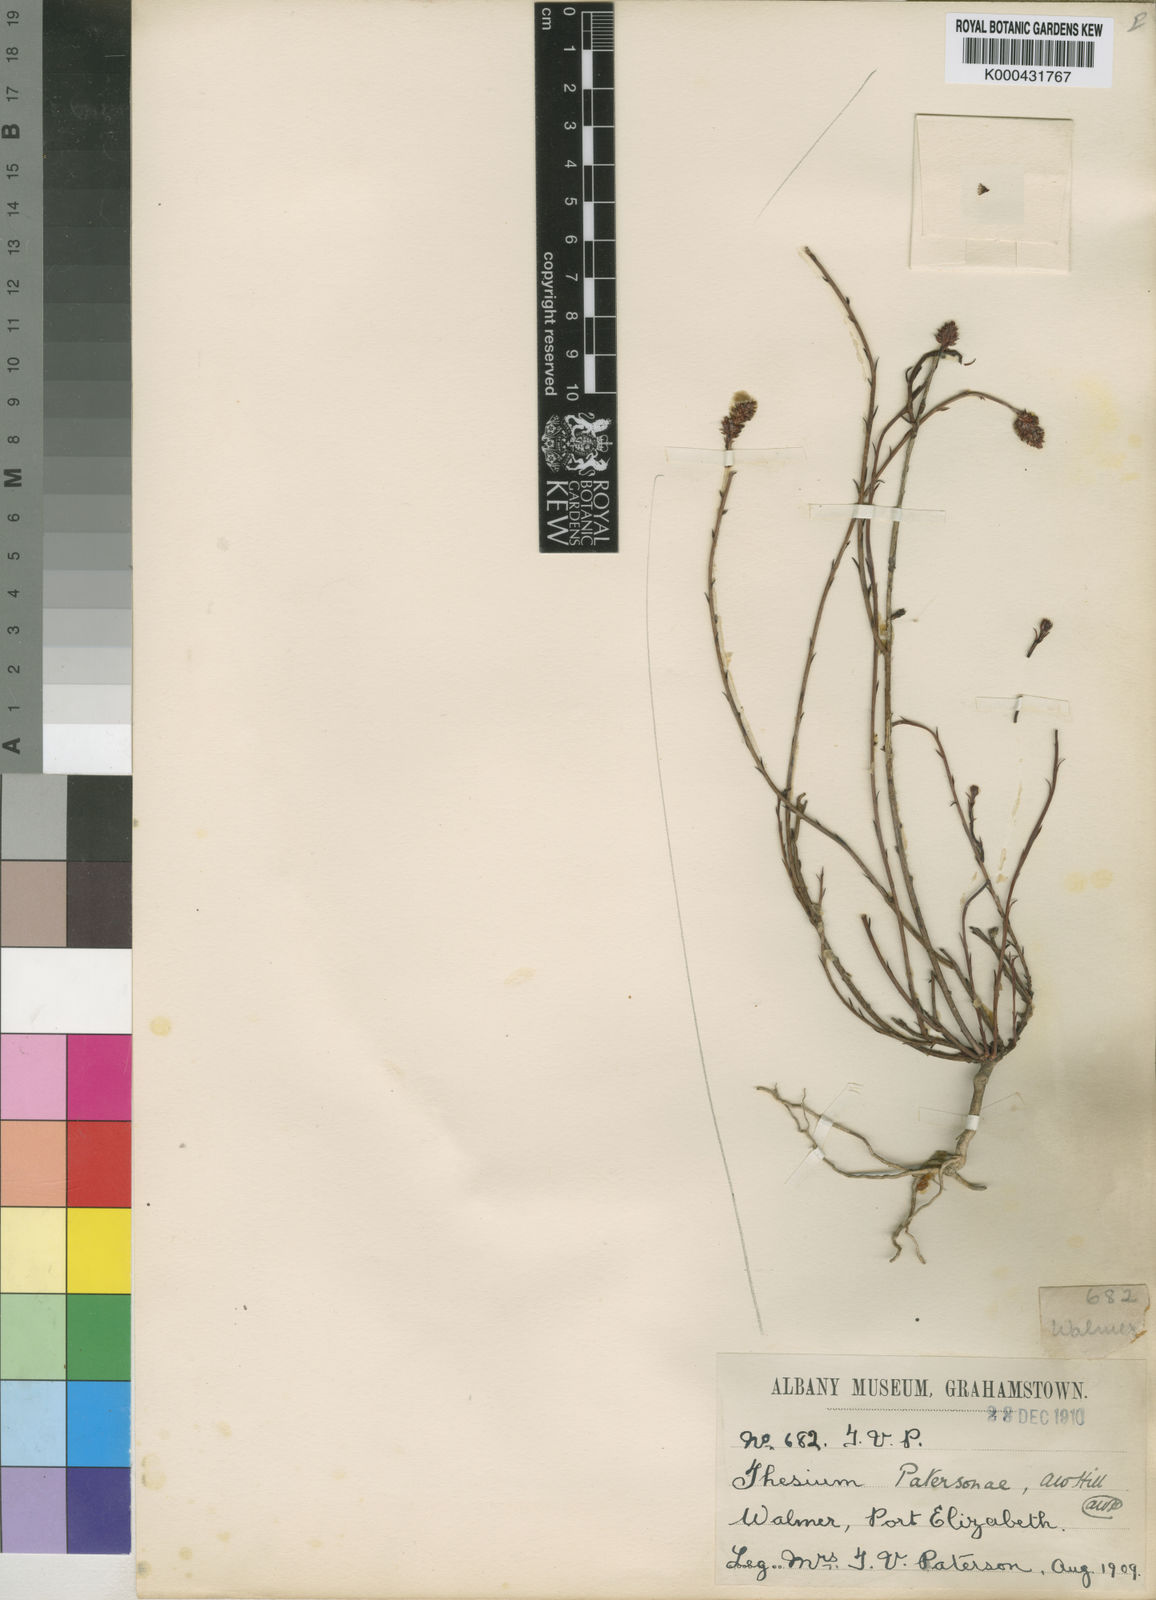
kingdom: Plantae
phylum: Tracheophyta
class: Magnoliopsida
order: Santalales
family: Thesiaceae
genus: Thesium
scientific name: Thesium patersonae
